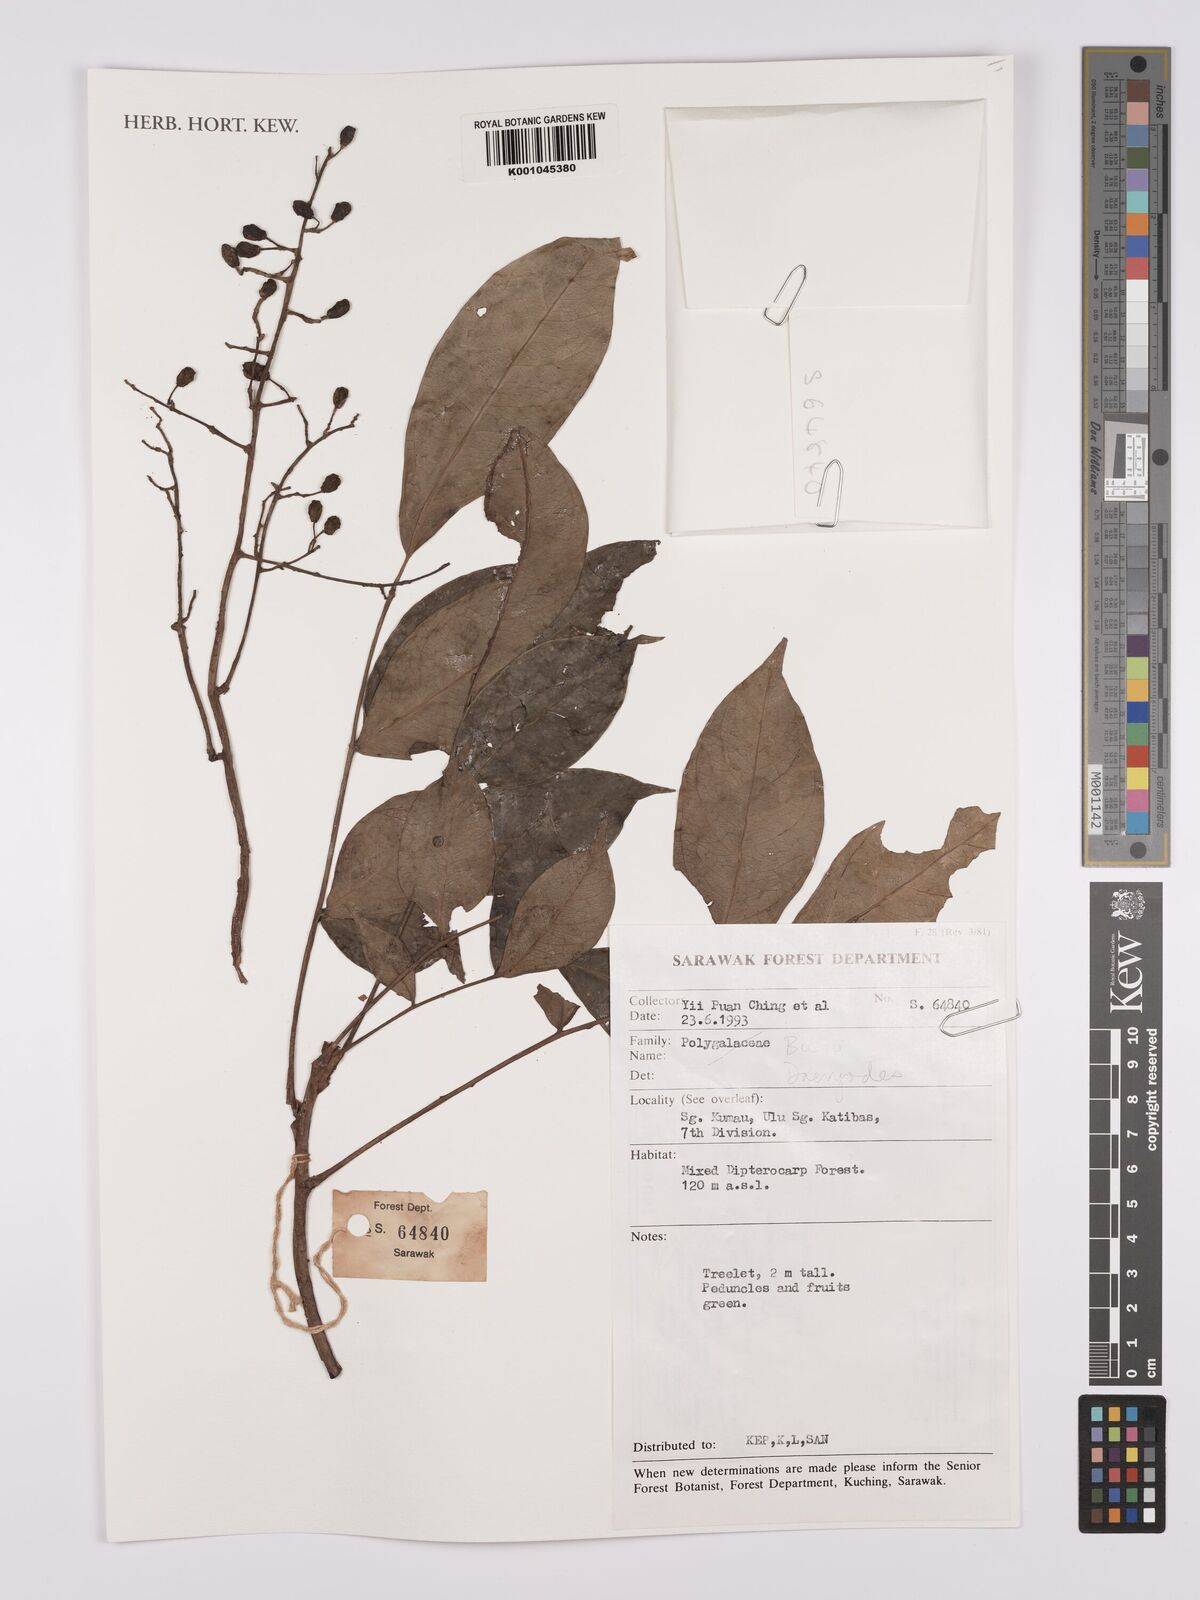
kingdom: Plantae
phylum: Tracheophyta
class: Magnoliopsida
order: Sapindales
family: Burseraceae
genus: Dacryodes
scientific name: Dacryodes
